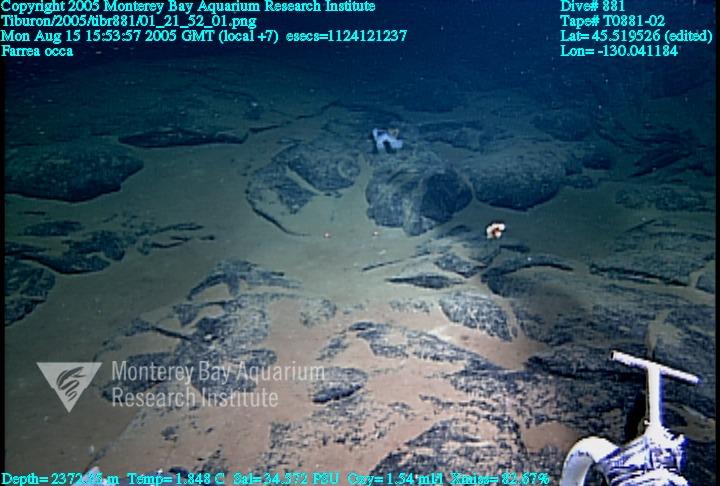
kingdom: Animalia
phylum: Porifera
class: Hexactinellida
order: Sceptrulophora
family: Farreidae
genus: Farrea
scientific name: Farrea occa
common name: Reversed glass sponge
